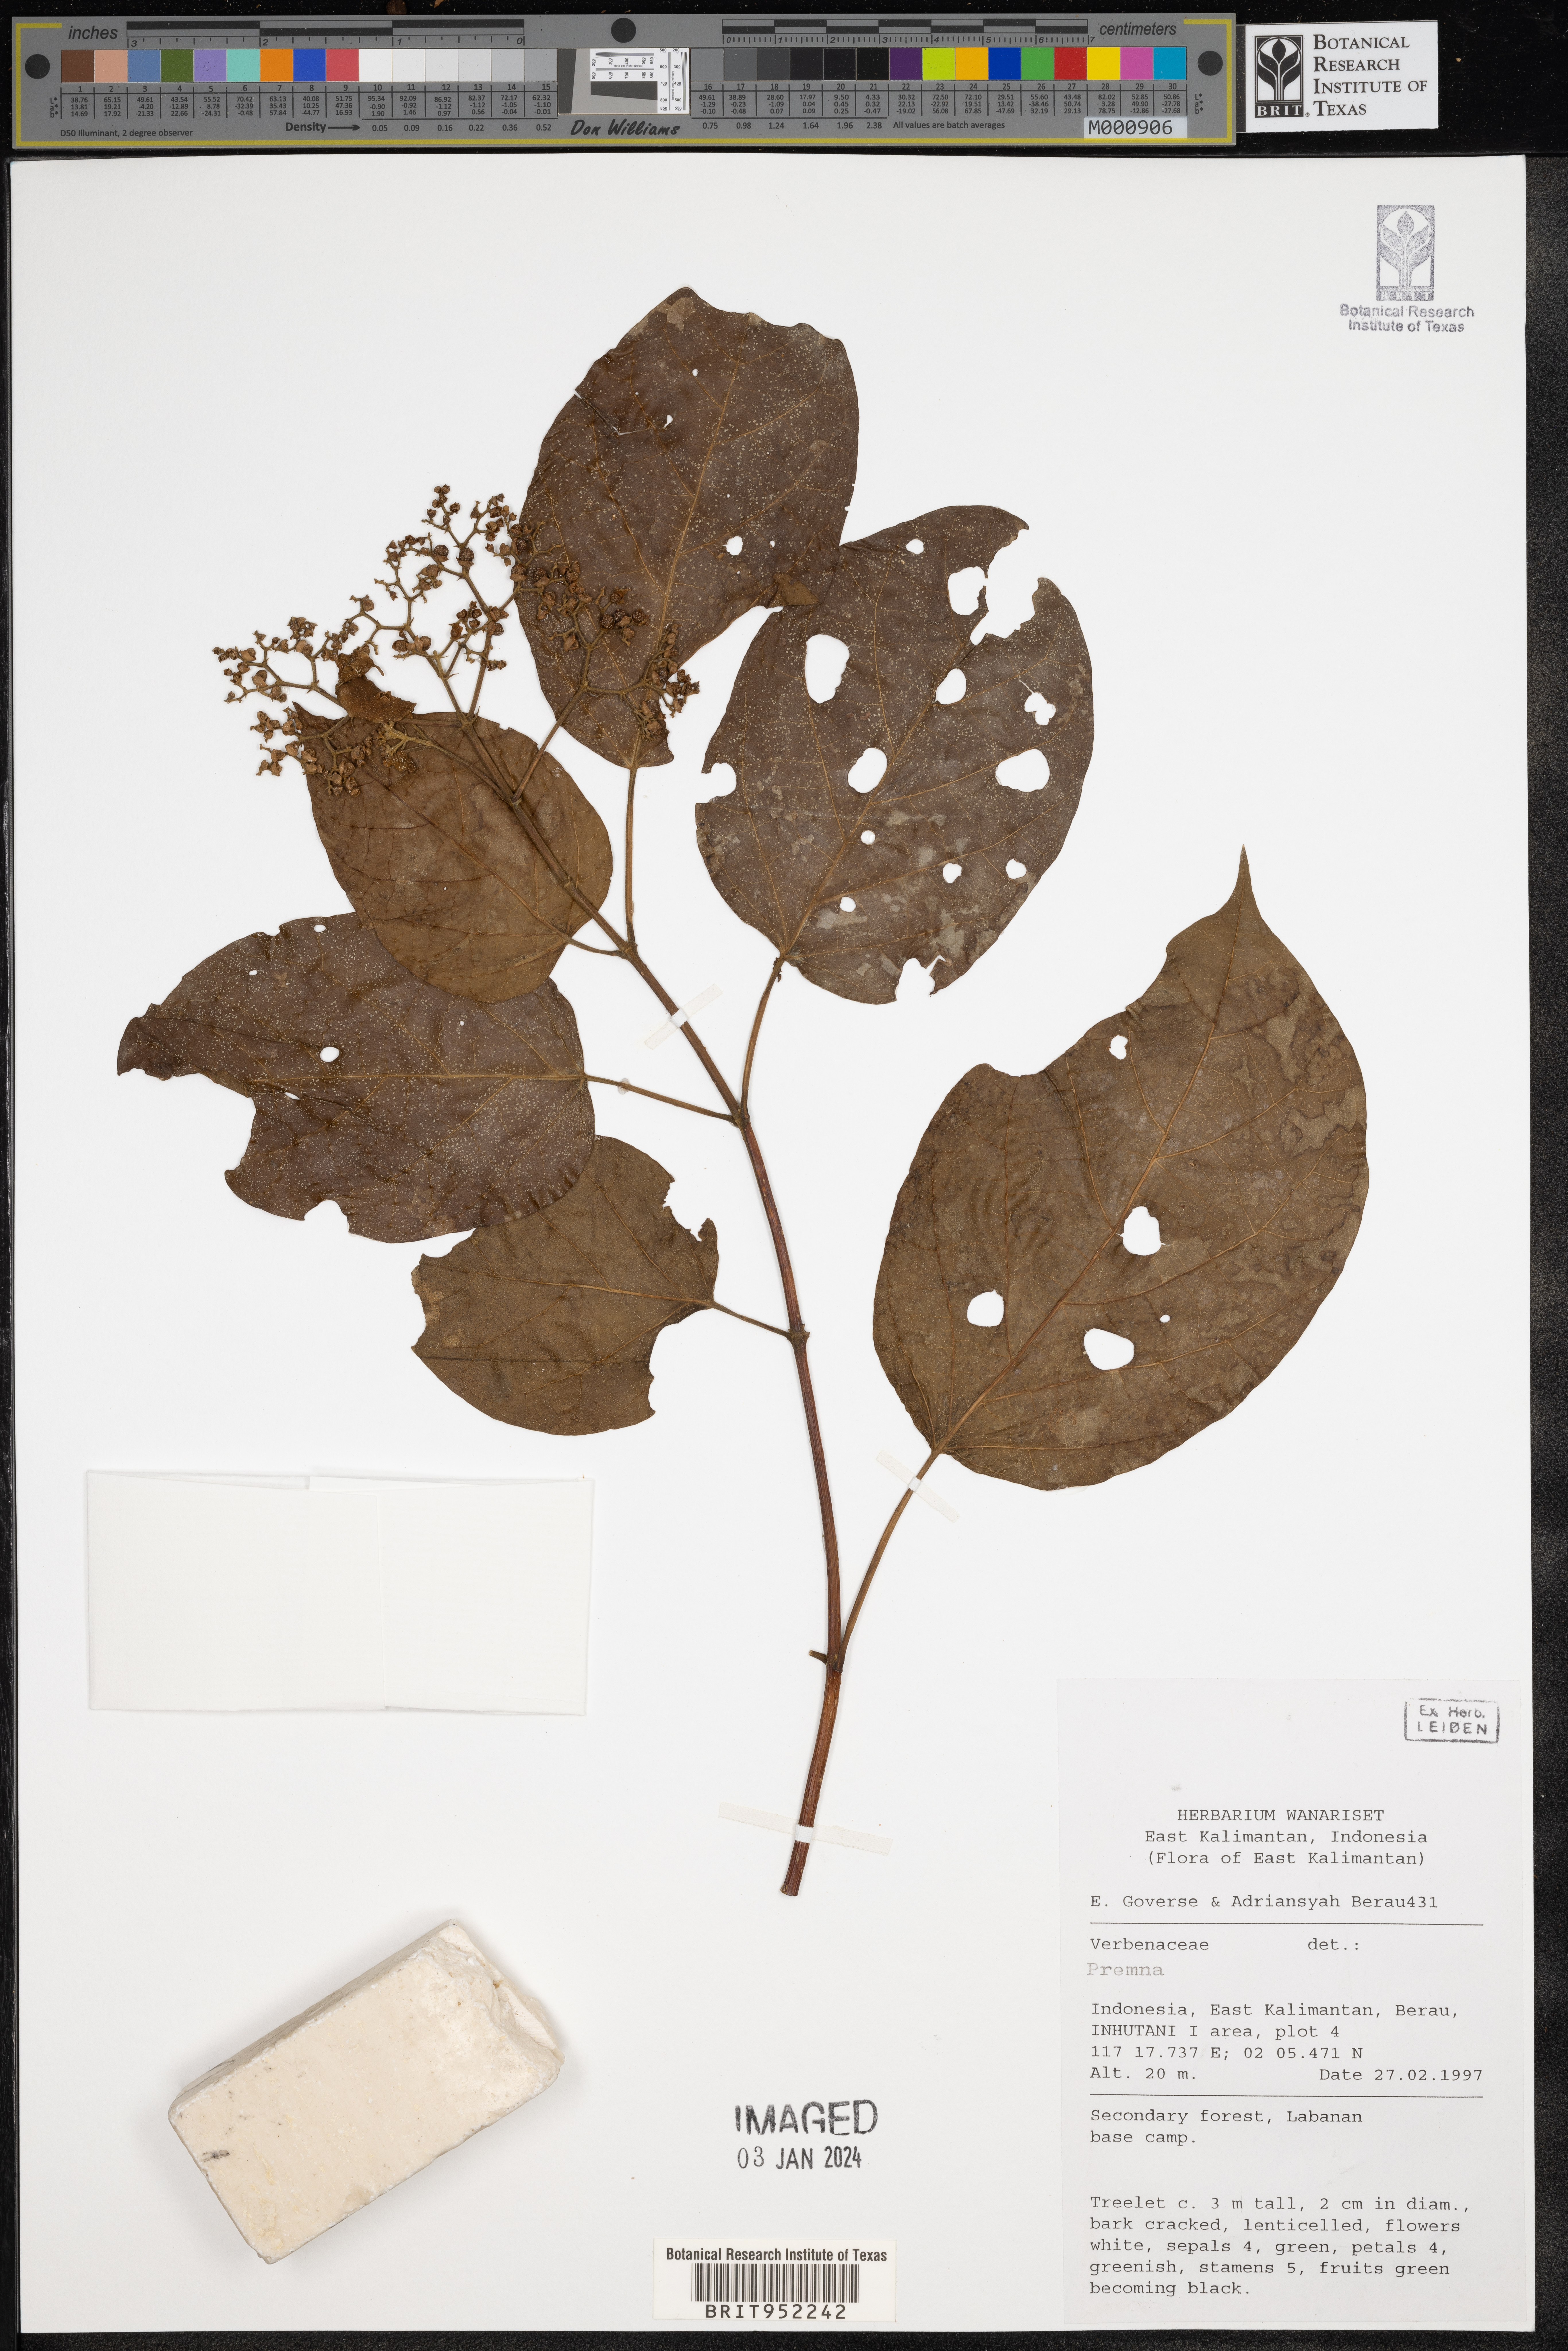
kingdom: Plantae
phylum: Tracheophyta
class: Magnoliopsida
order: Lamiales
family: Lamiaceae
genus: Premna
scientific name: Premna
